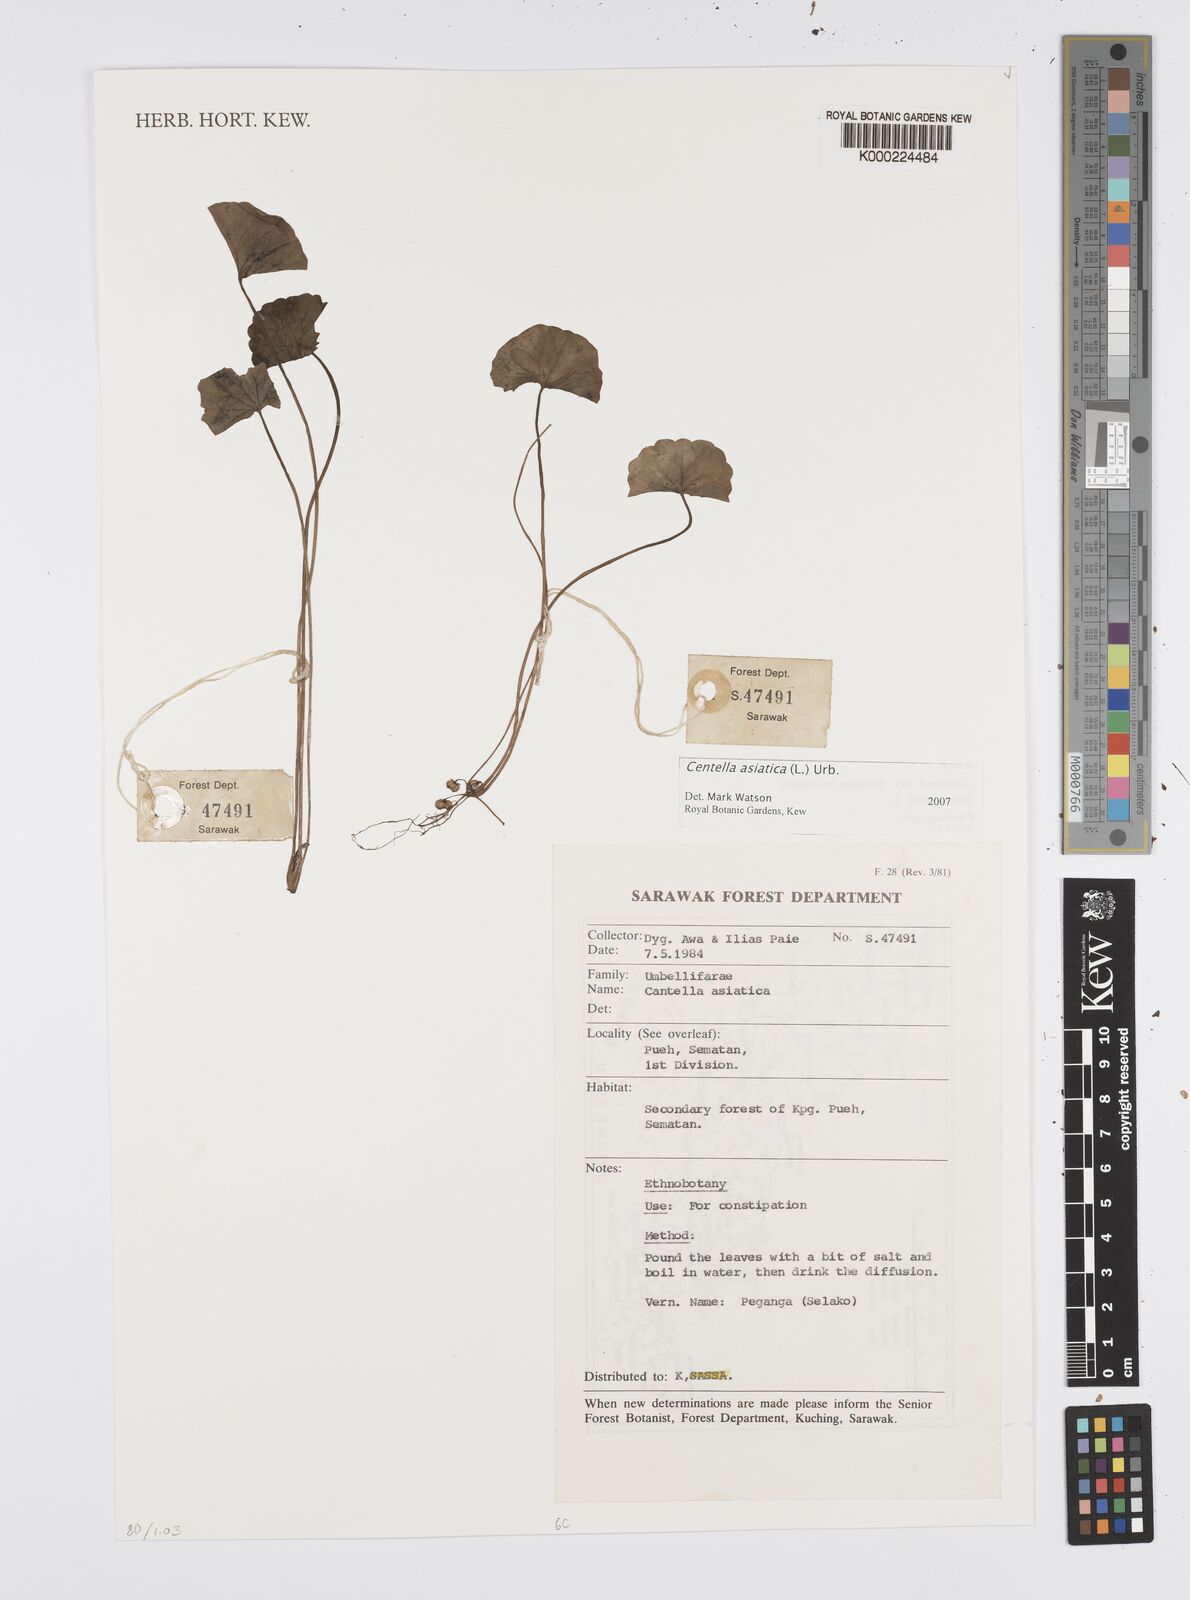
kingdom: Plantae
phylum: Tracheophyta
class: Magnoliopsida
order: Apiales
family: Apiaceae
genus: Centella
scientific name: Centella asiatica
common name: Spadeleaf
